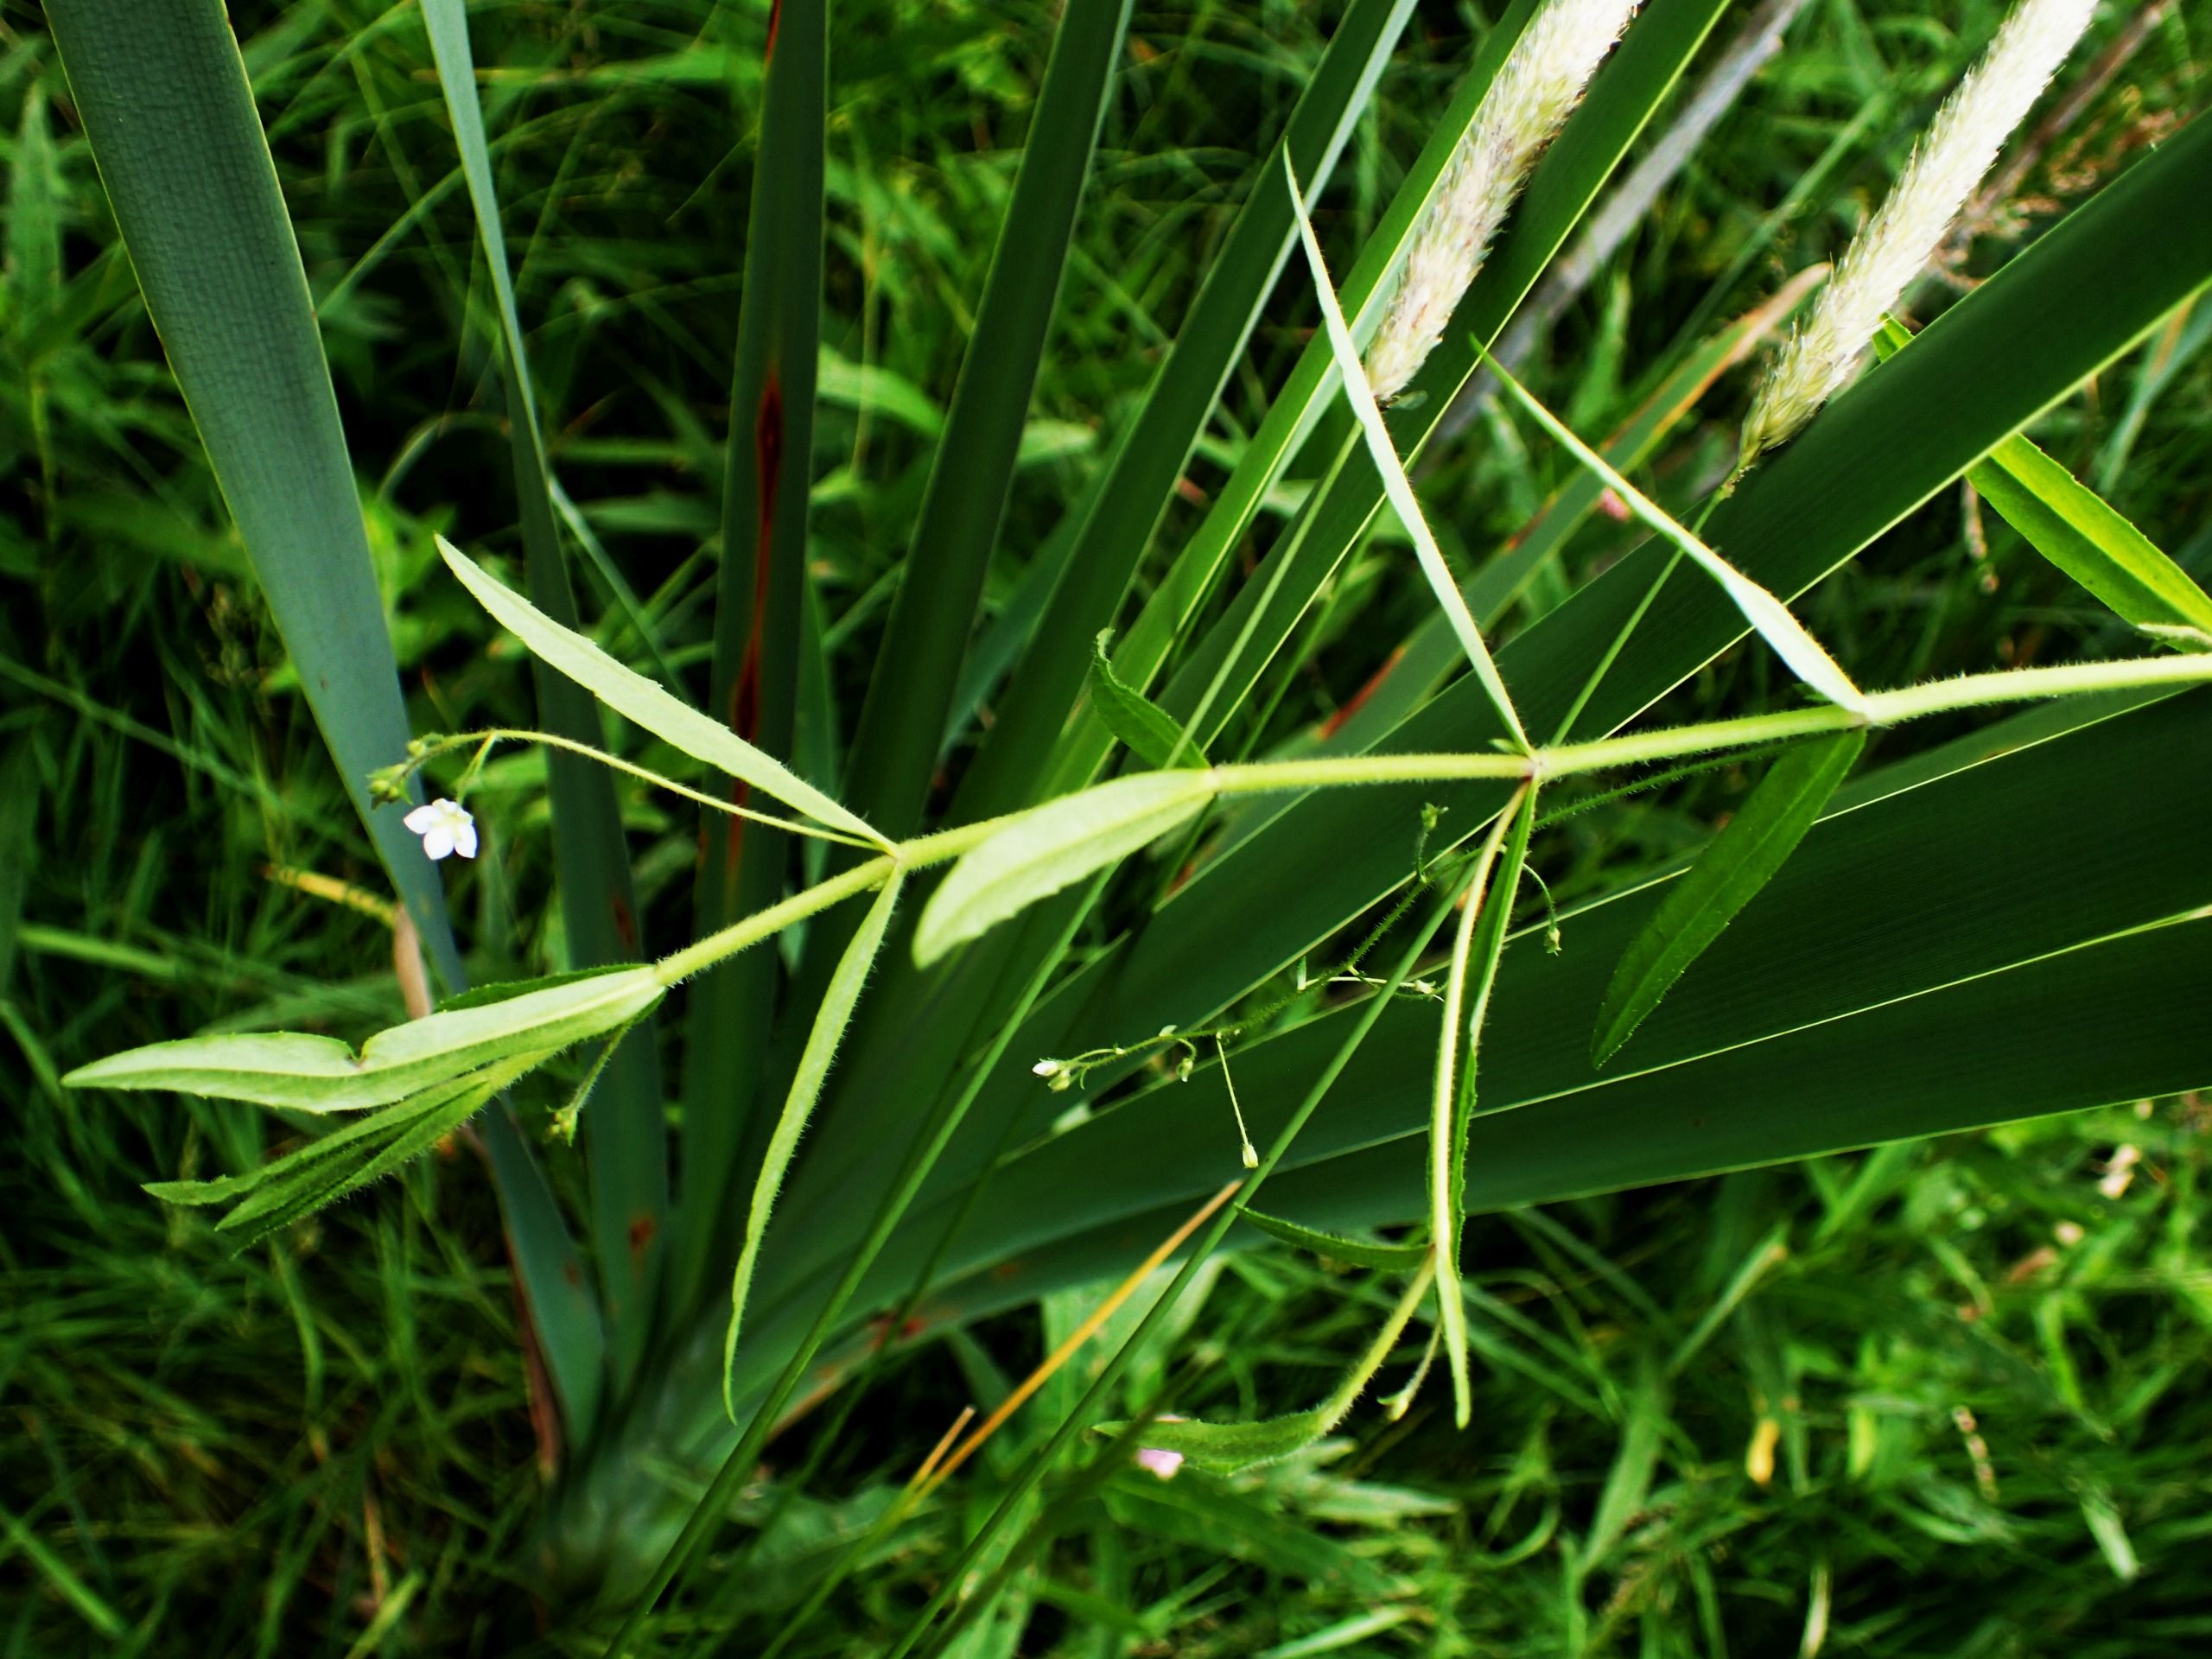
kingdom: Plantae
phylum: Tracheophyta
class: Magnoliopsida
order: Lamiales
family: Plantaginaceae
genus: Veronica
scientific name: Veronica scutellata
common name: Smalbladet ærenpris
